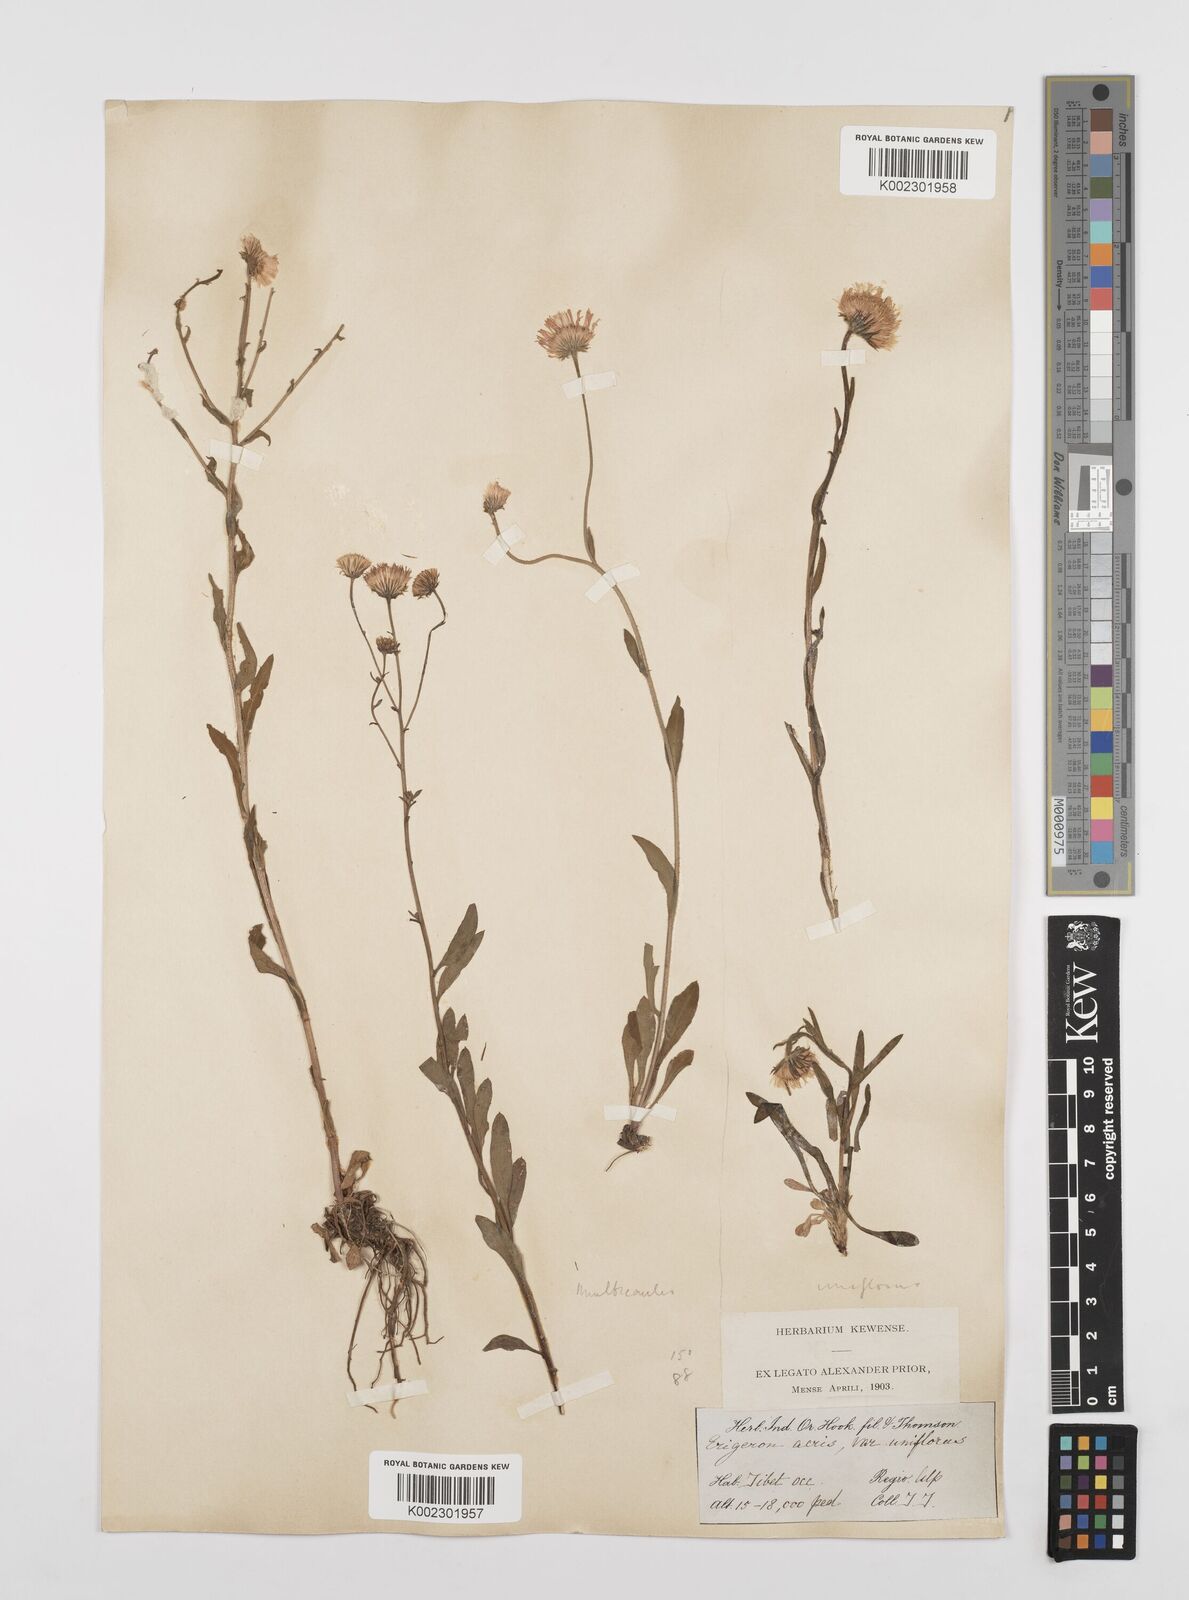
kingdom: Plantae
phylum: Tracheophyta
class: Magnoliopsida
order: Asterales
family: Asteraceae
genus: Erigeron
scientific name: Erigeron alpinus
